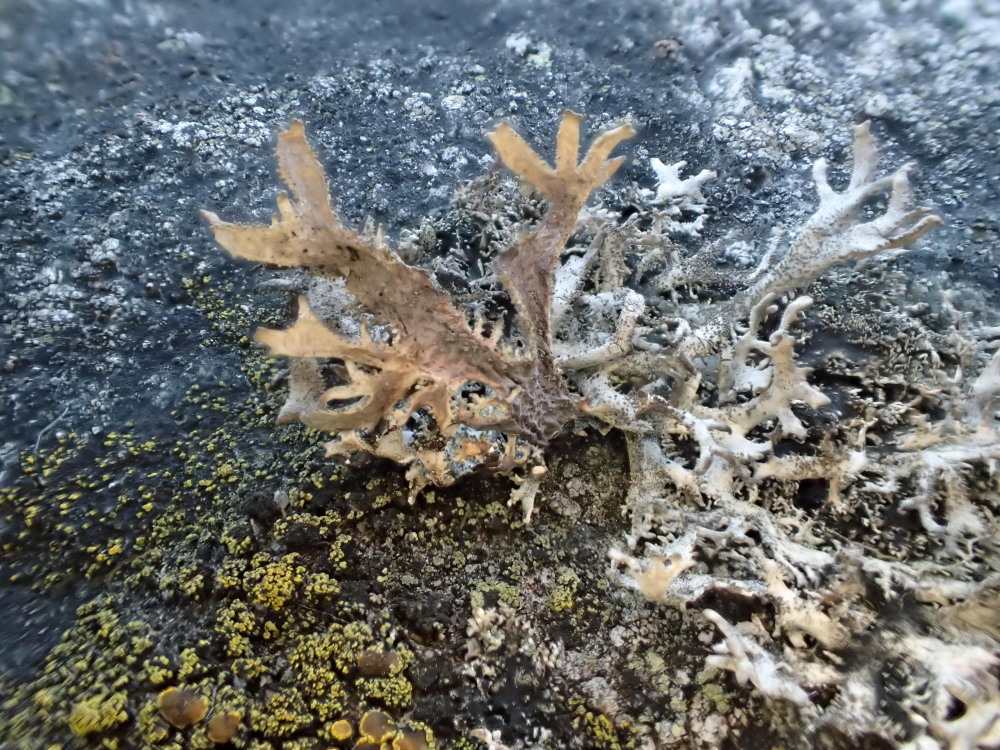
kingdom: Fungi
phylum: Ascomycota
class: Lecanoromycetes
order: Lecanorales
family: Parmeliaceae
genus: Pseudevernia
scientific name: Pseudevernia furfuracea
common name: grå fyrrelav
